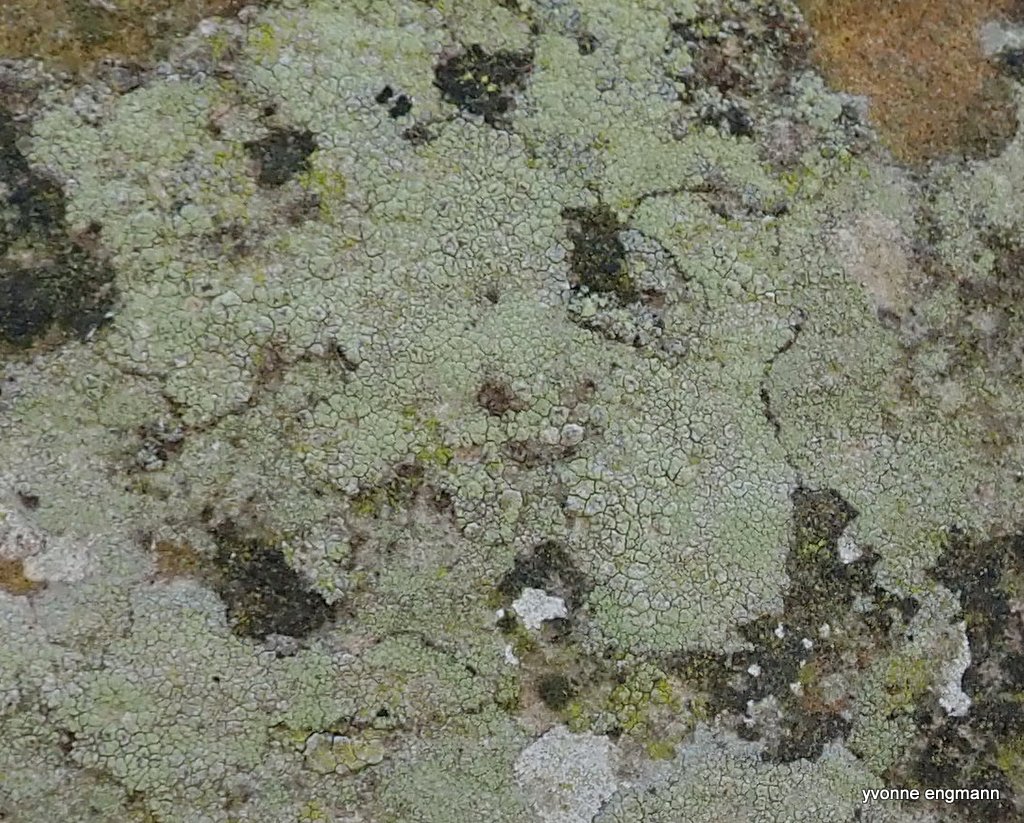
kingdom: Fungi
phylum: Ascomycota
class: Lecanoromycetes
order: Lecanorales
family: Lecanoraceae
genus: Lecidella
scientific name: Lecidella scabra
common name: skurvet skivelav
